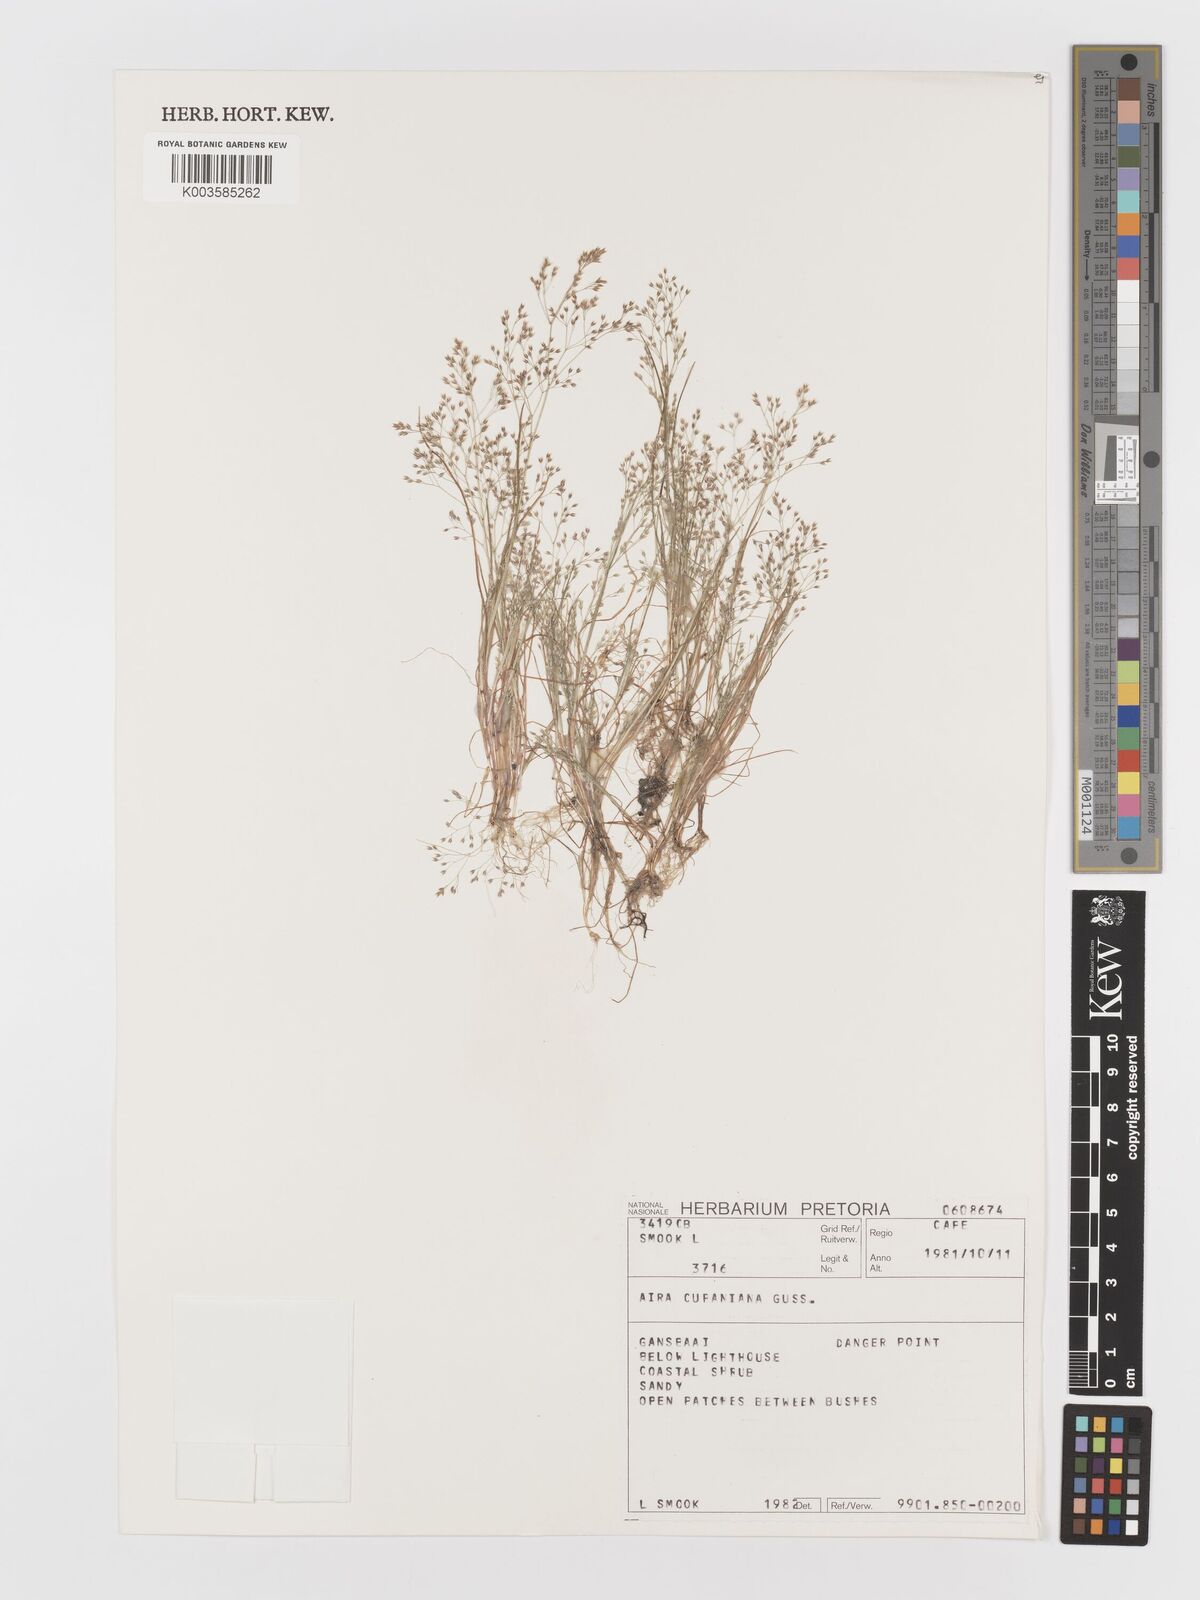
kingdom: Plantae
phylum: Tracheophyta
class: Liliopsida
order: Poales
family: Poaceae
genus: Aira
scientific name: Aira cupaniana
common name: Silver hairgrass
